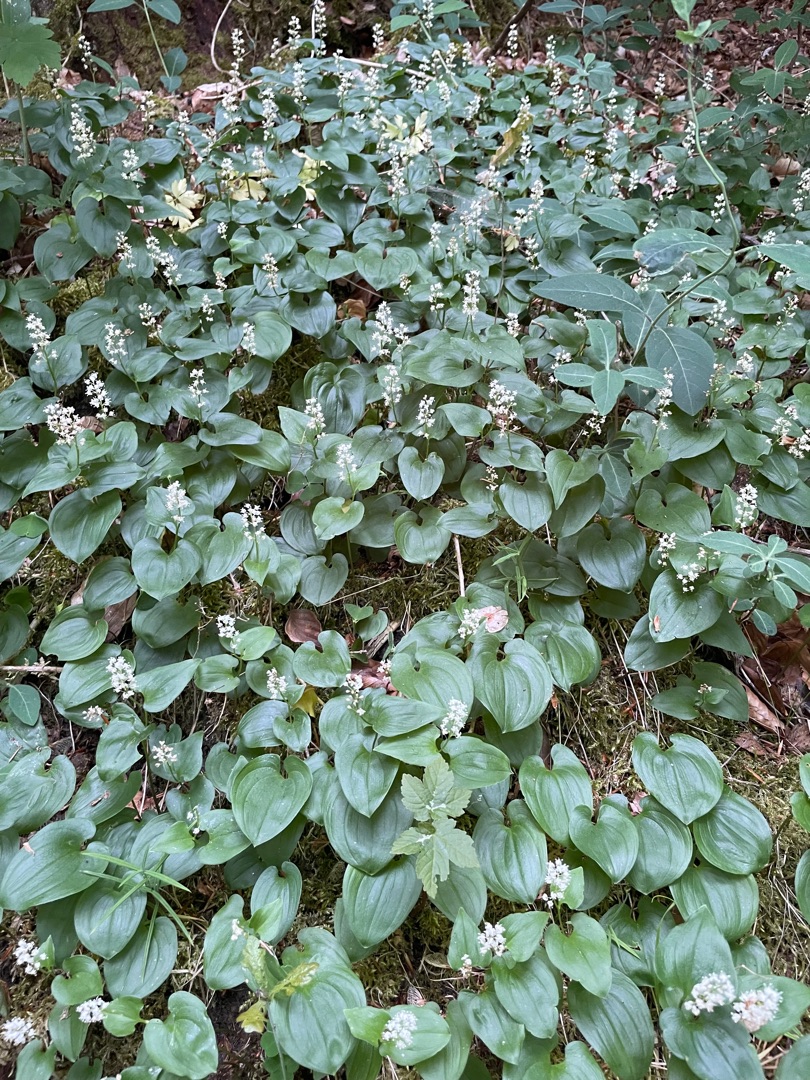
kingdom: Plantae
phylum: Tracheophyta
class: Liliopsida
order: Asparagales
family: Asparagaceae
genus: Maianthemum
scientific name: Maianthemum bifolium
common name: Majblomst
